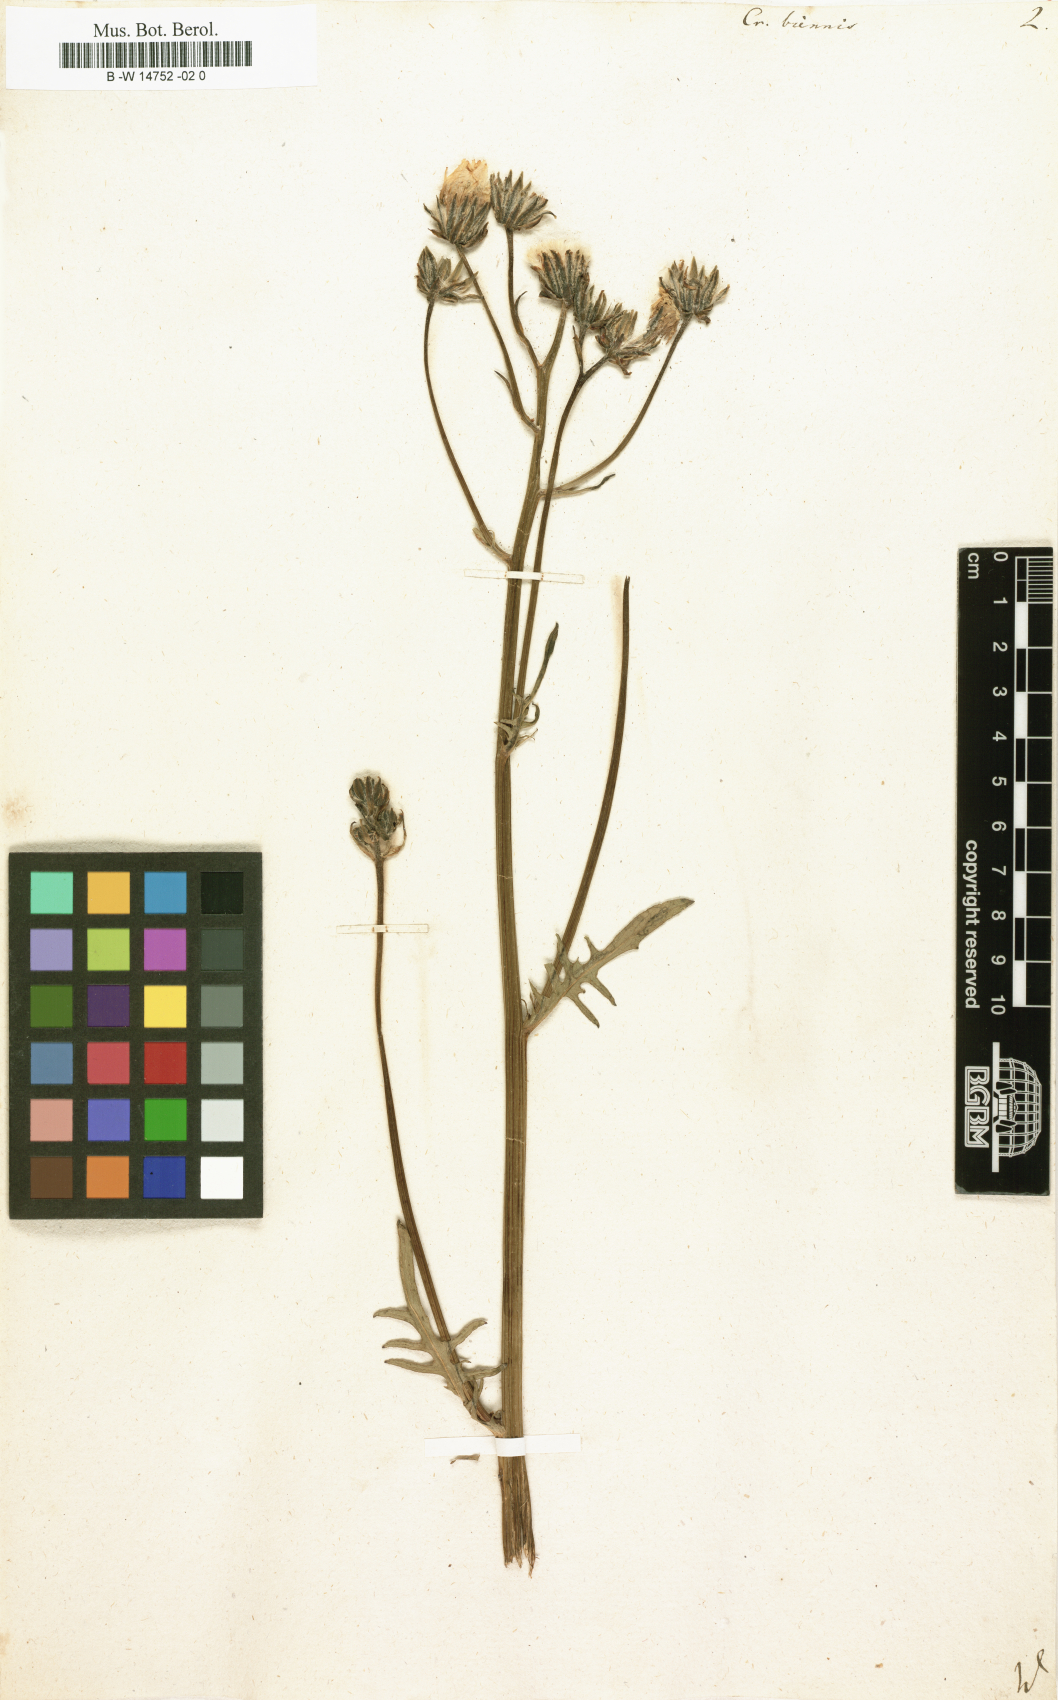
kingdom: Plantae
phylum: Tracheophyta
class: Magnoliopsida
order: Asterales
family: Asteraceae
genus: Crepis
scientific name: Crepis biennis
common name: Rough hawk's-beard
